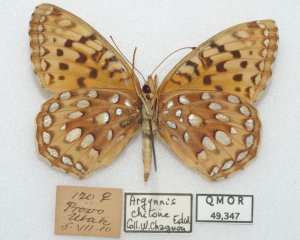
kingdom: Animalia
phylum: Arthropoda
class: Insecta
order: Lepidoptera
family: Nymphalidae
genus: Speyeria
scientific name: Speyeria atlantis
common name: Atlantis Fritillary
